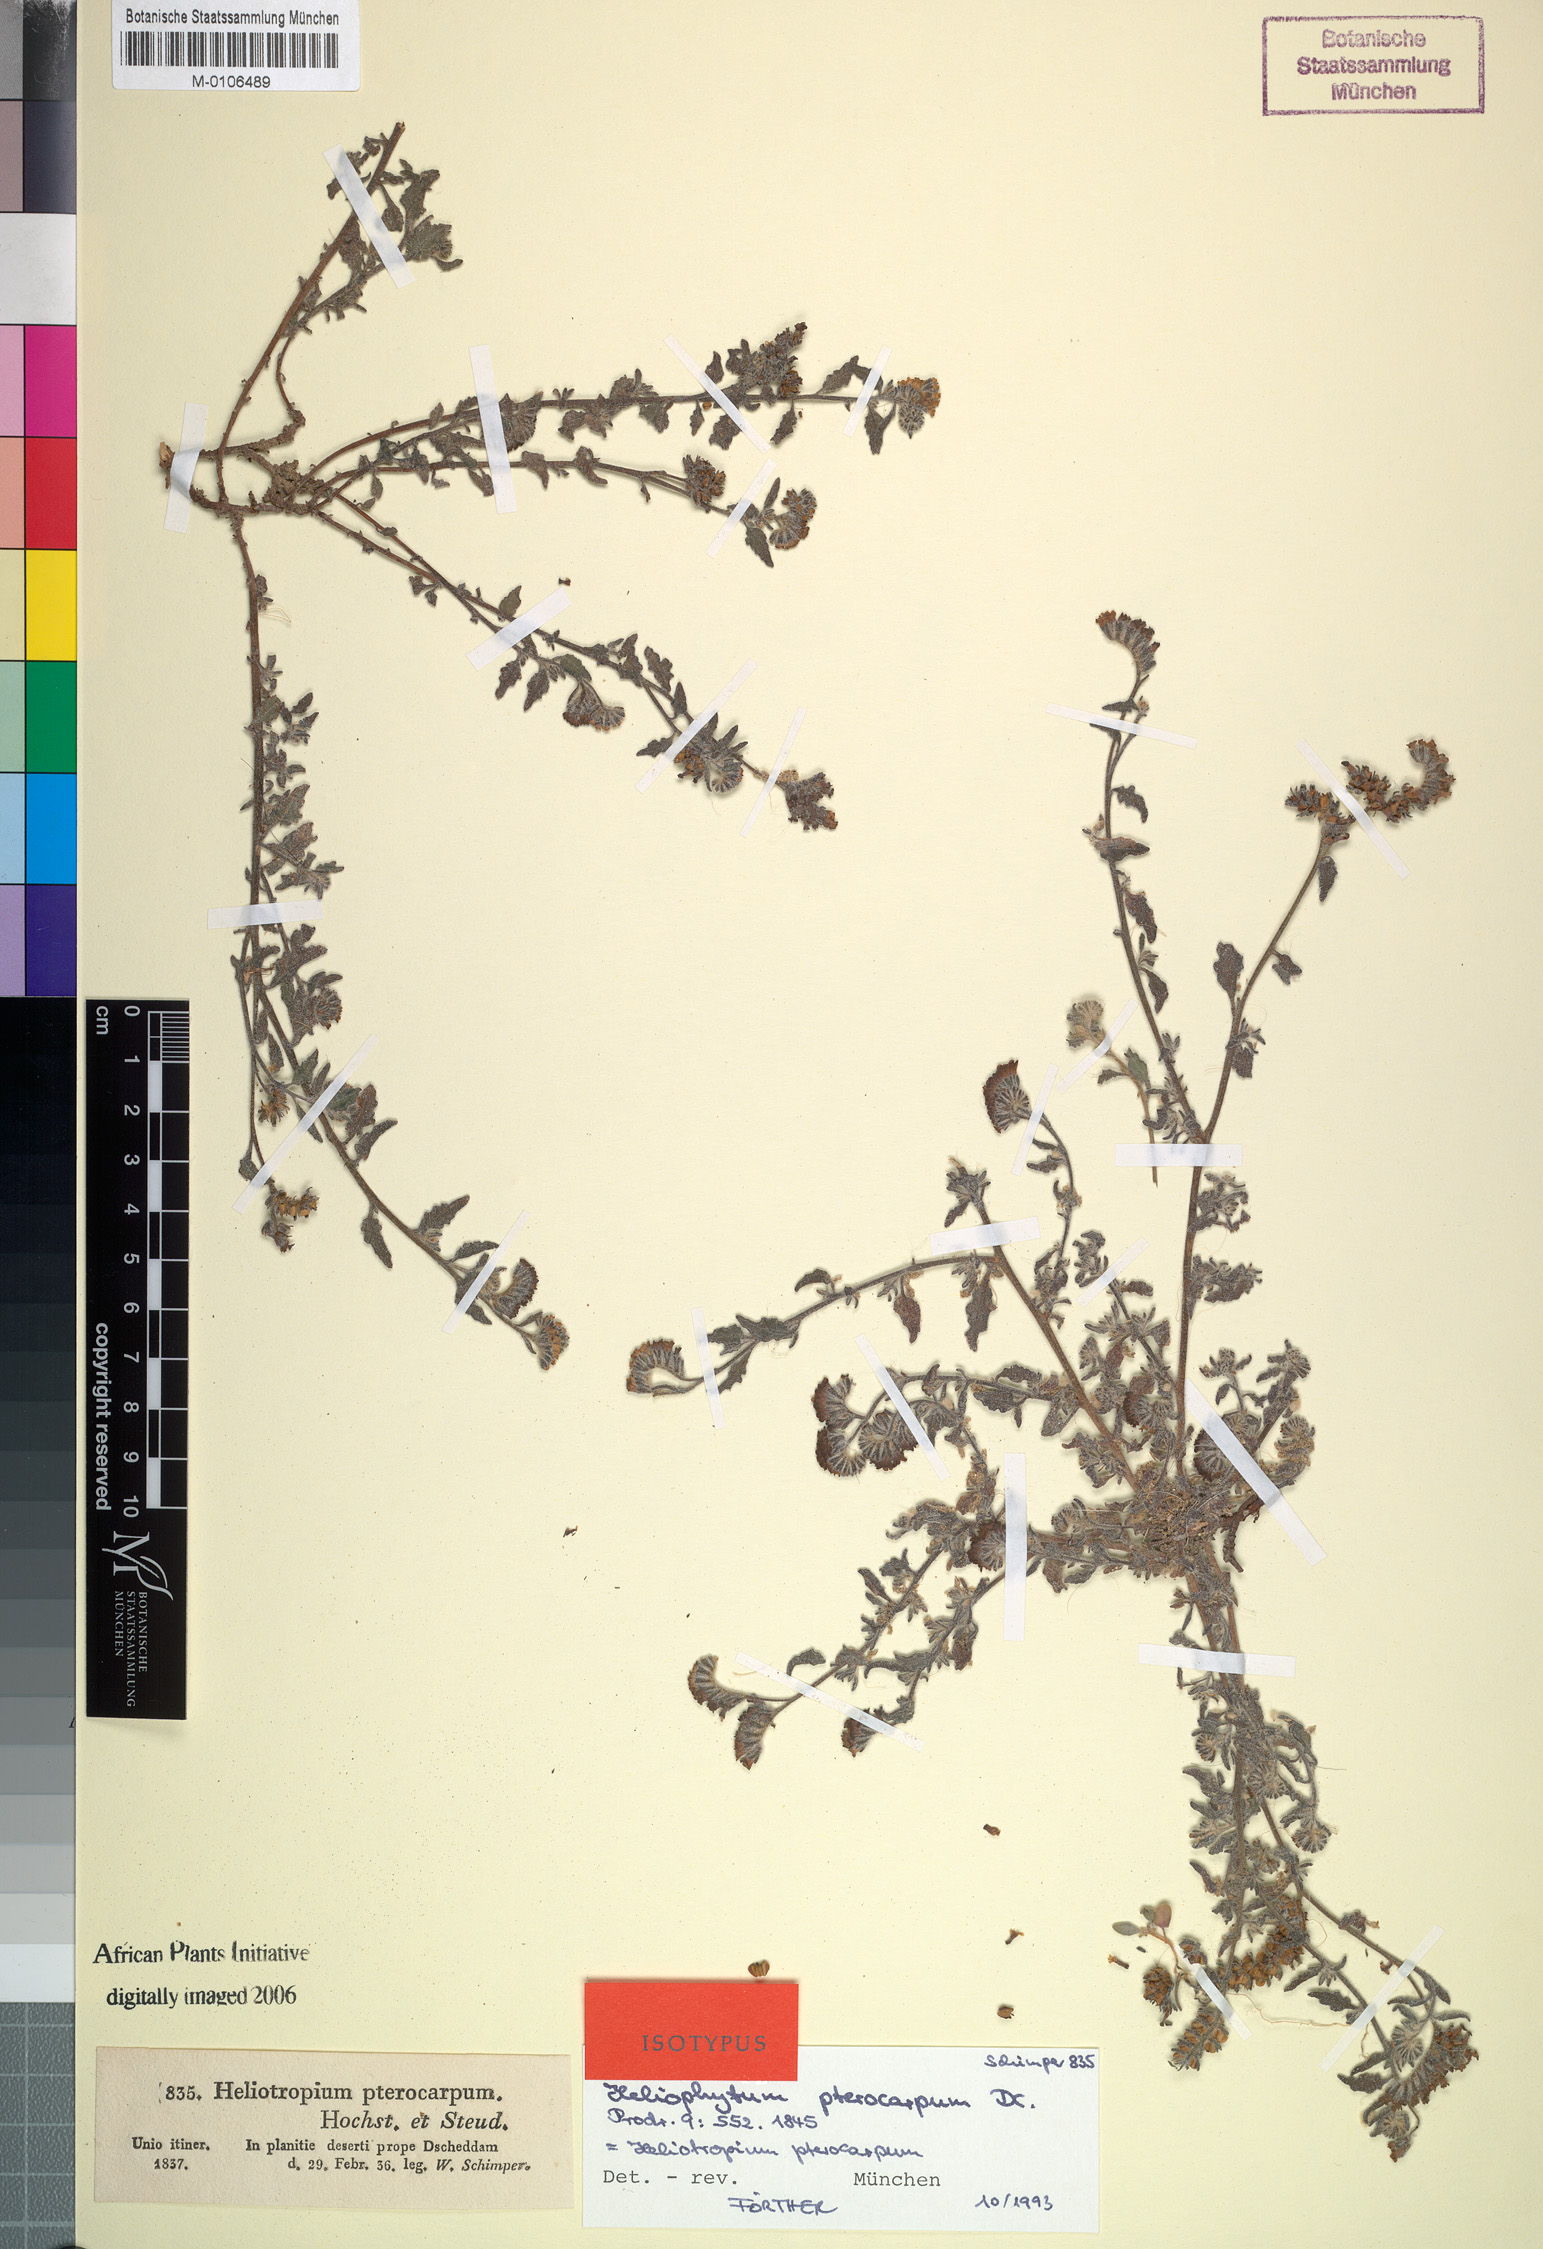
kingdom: Plantae
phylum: Tracheophyta
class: Magnoliopsida
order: Boraginales
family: Heliotropiaceae
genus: Heliotropium
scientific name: Heliotropium bacciferum
